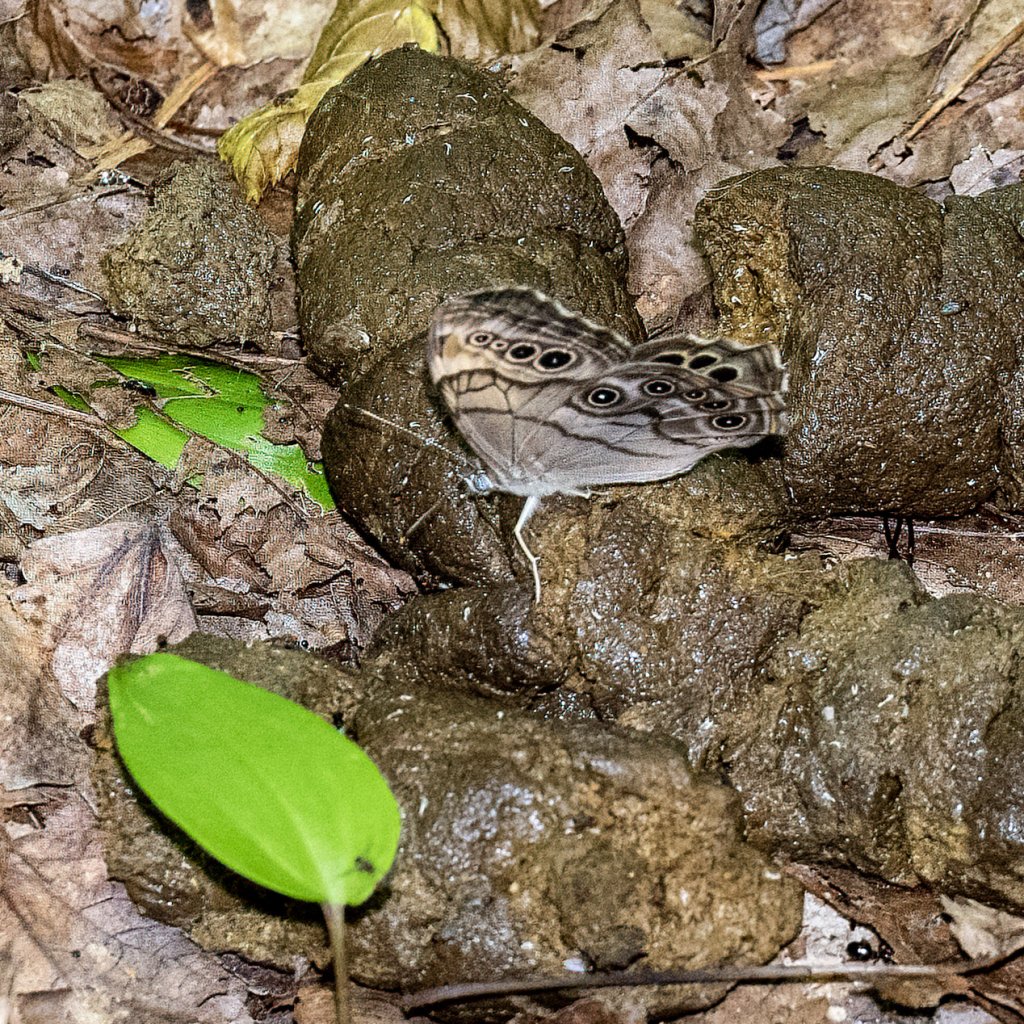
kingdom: Animalia
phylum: Arthropoda
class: Insecta
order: Lepidoptera
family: Nymphalidae
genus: Lethe
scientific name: Lethe anthedon
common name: Northern Pearly-Eye
